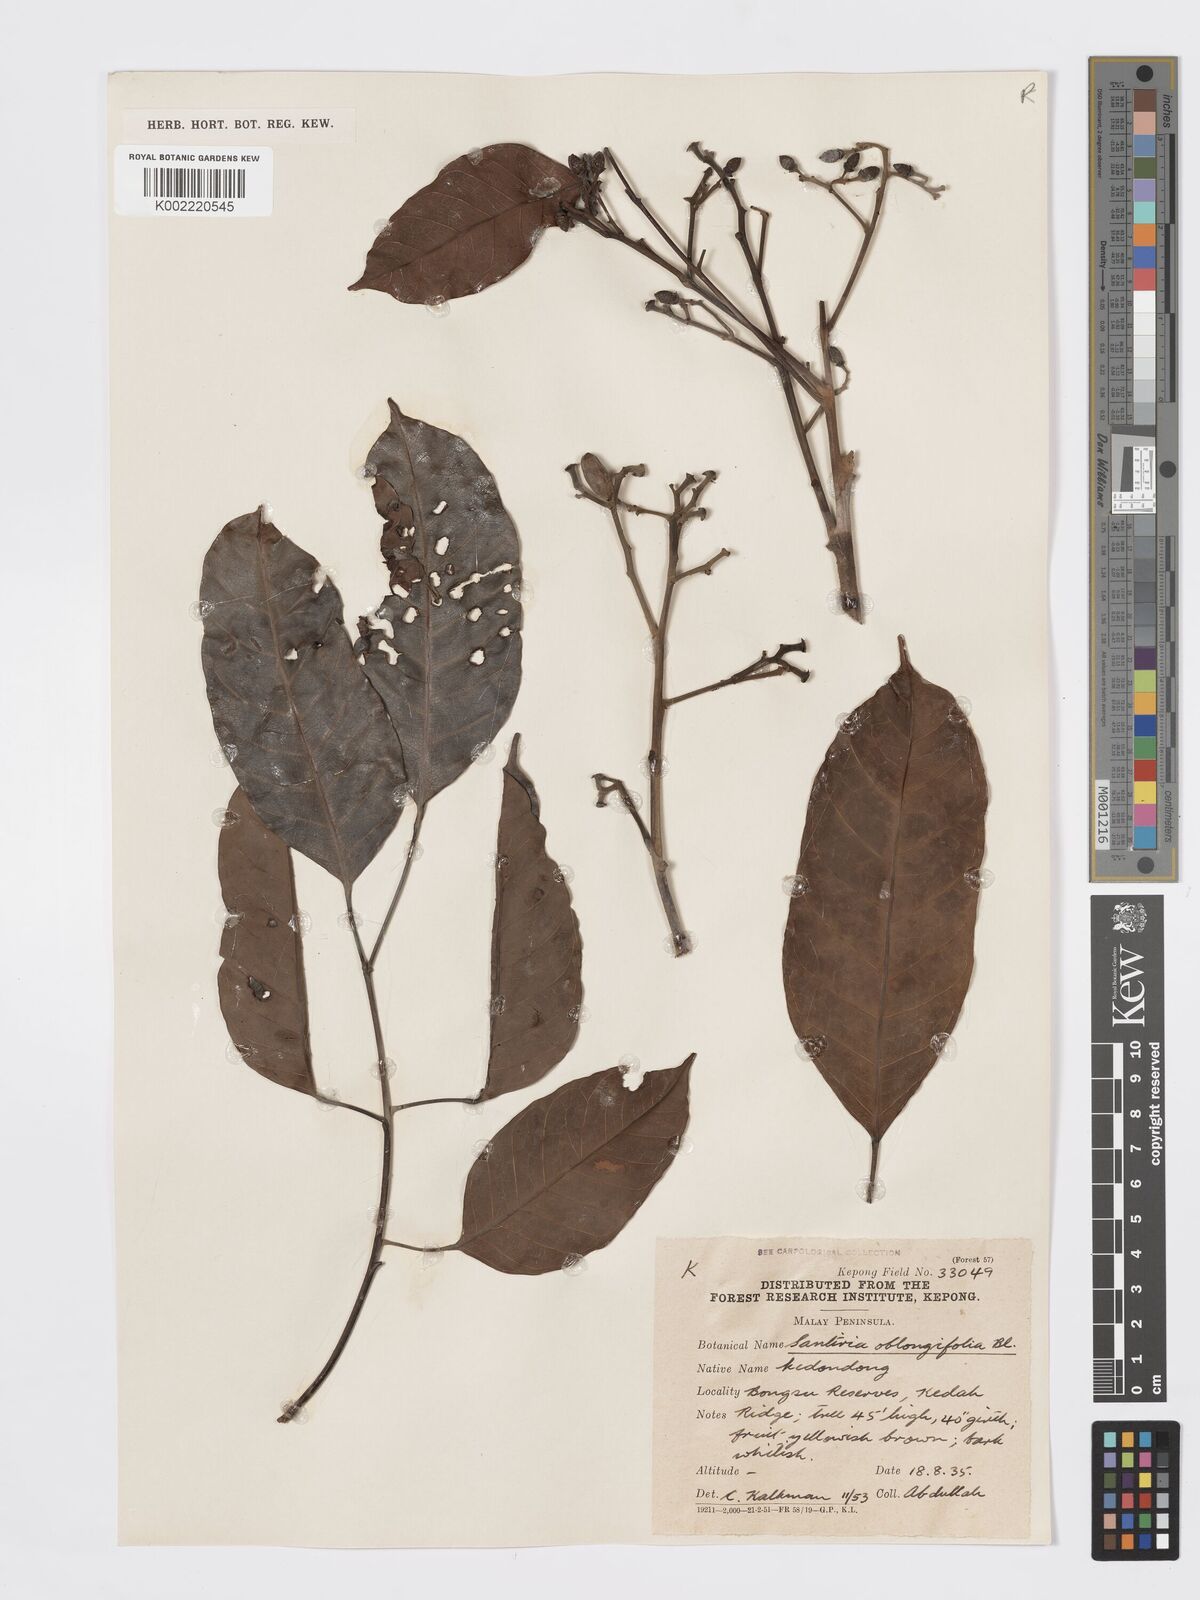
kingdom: Plantae
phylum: Tracheophyta
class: Magnoliopsida
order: Sapindales
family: Burseraceae
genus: Santiria
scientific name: Santiria oblongifolia
